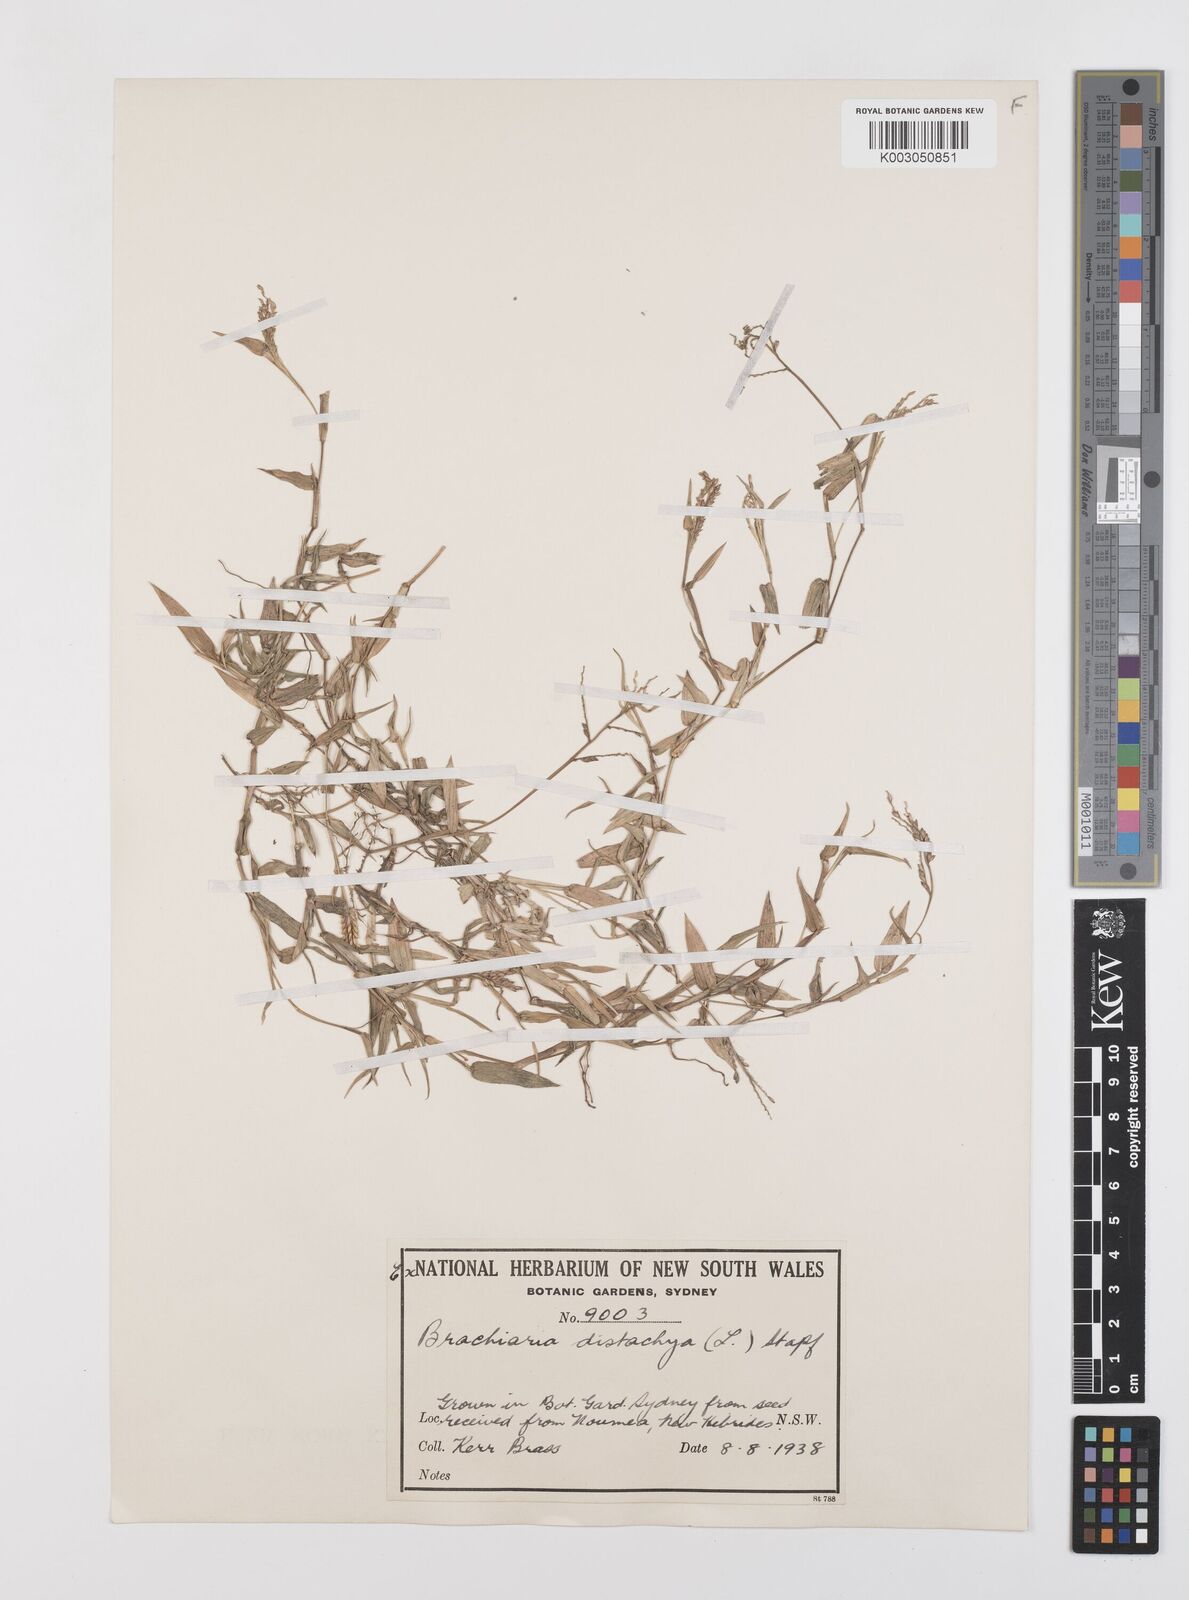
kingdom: Plantae
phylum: Tracheophyta
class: Liliopsida
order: Poales
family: Poaceae
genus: Urochloa
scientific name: Urochloa distachyos
